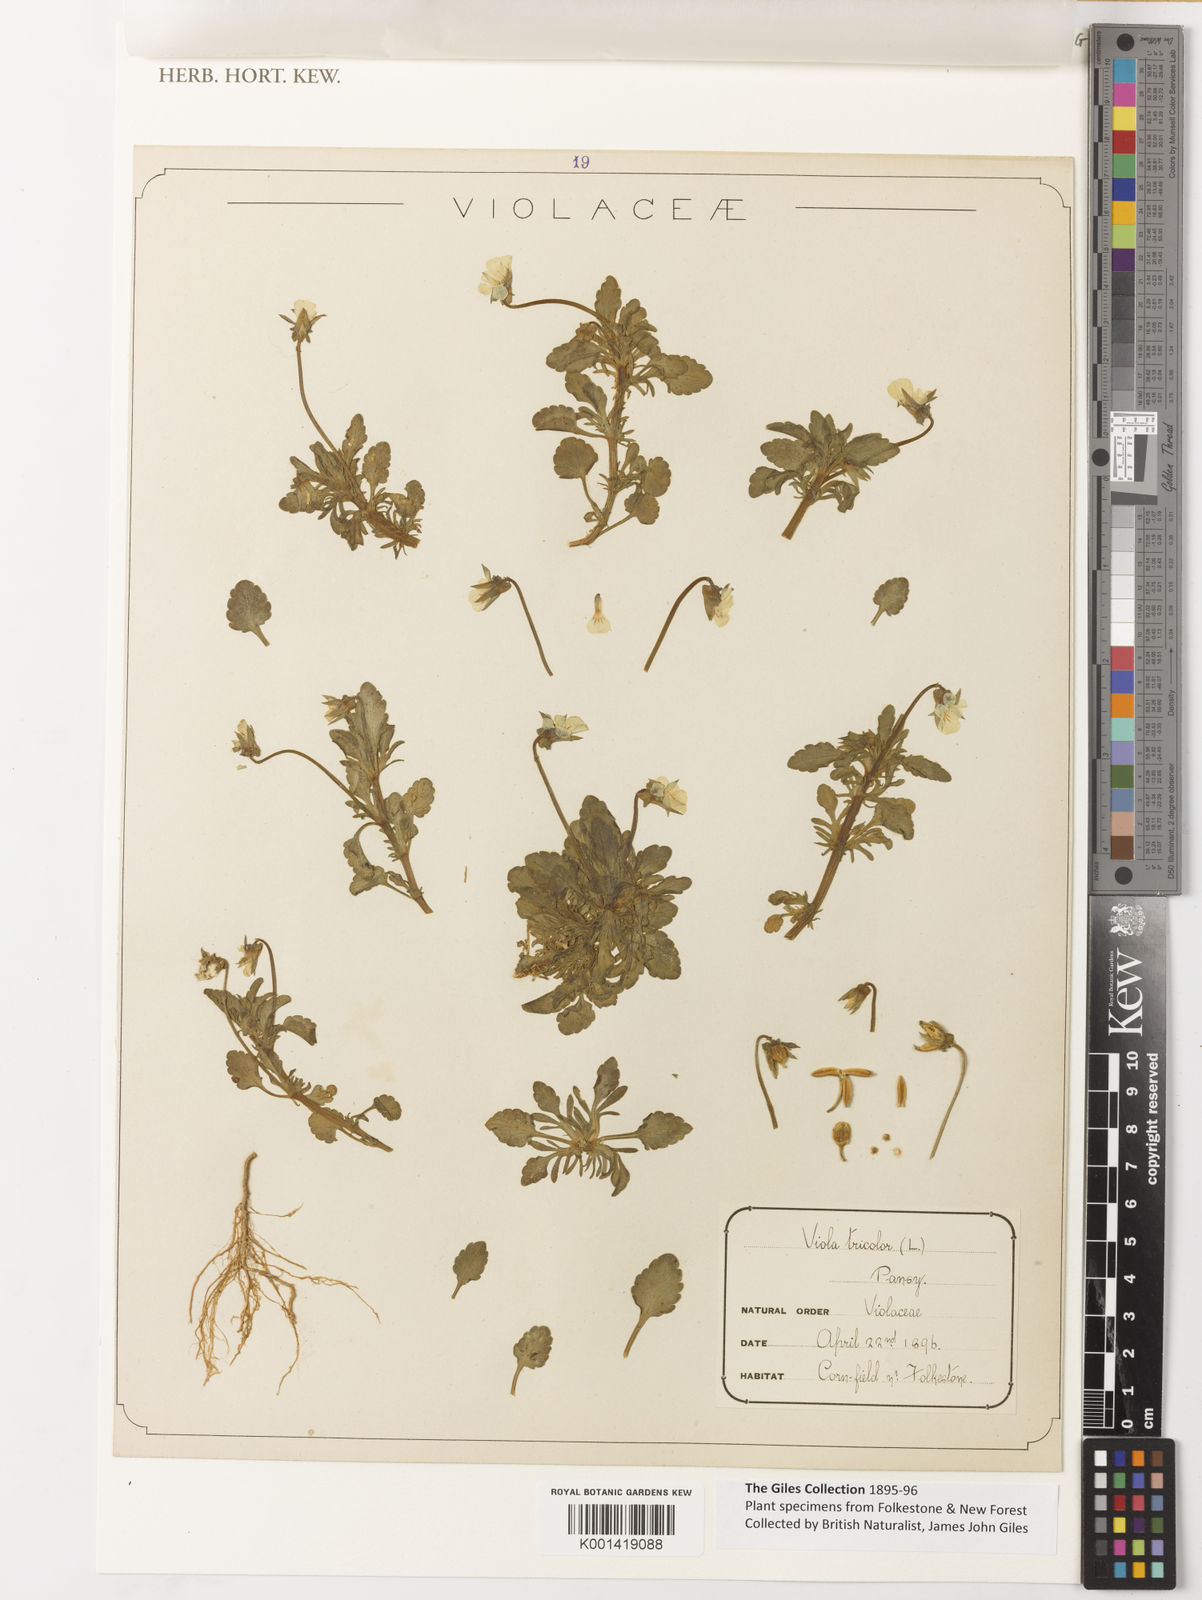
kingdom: Plantae
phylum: Tracheophyta
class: Magnoliopsida
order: Malpighiales
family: Violaceae
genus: Viola
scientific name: Viola tricolor
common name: Pansy
